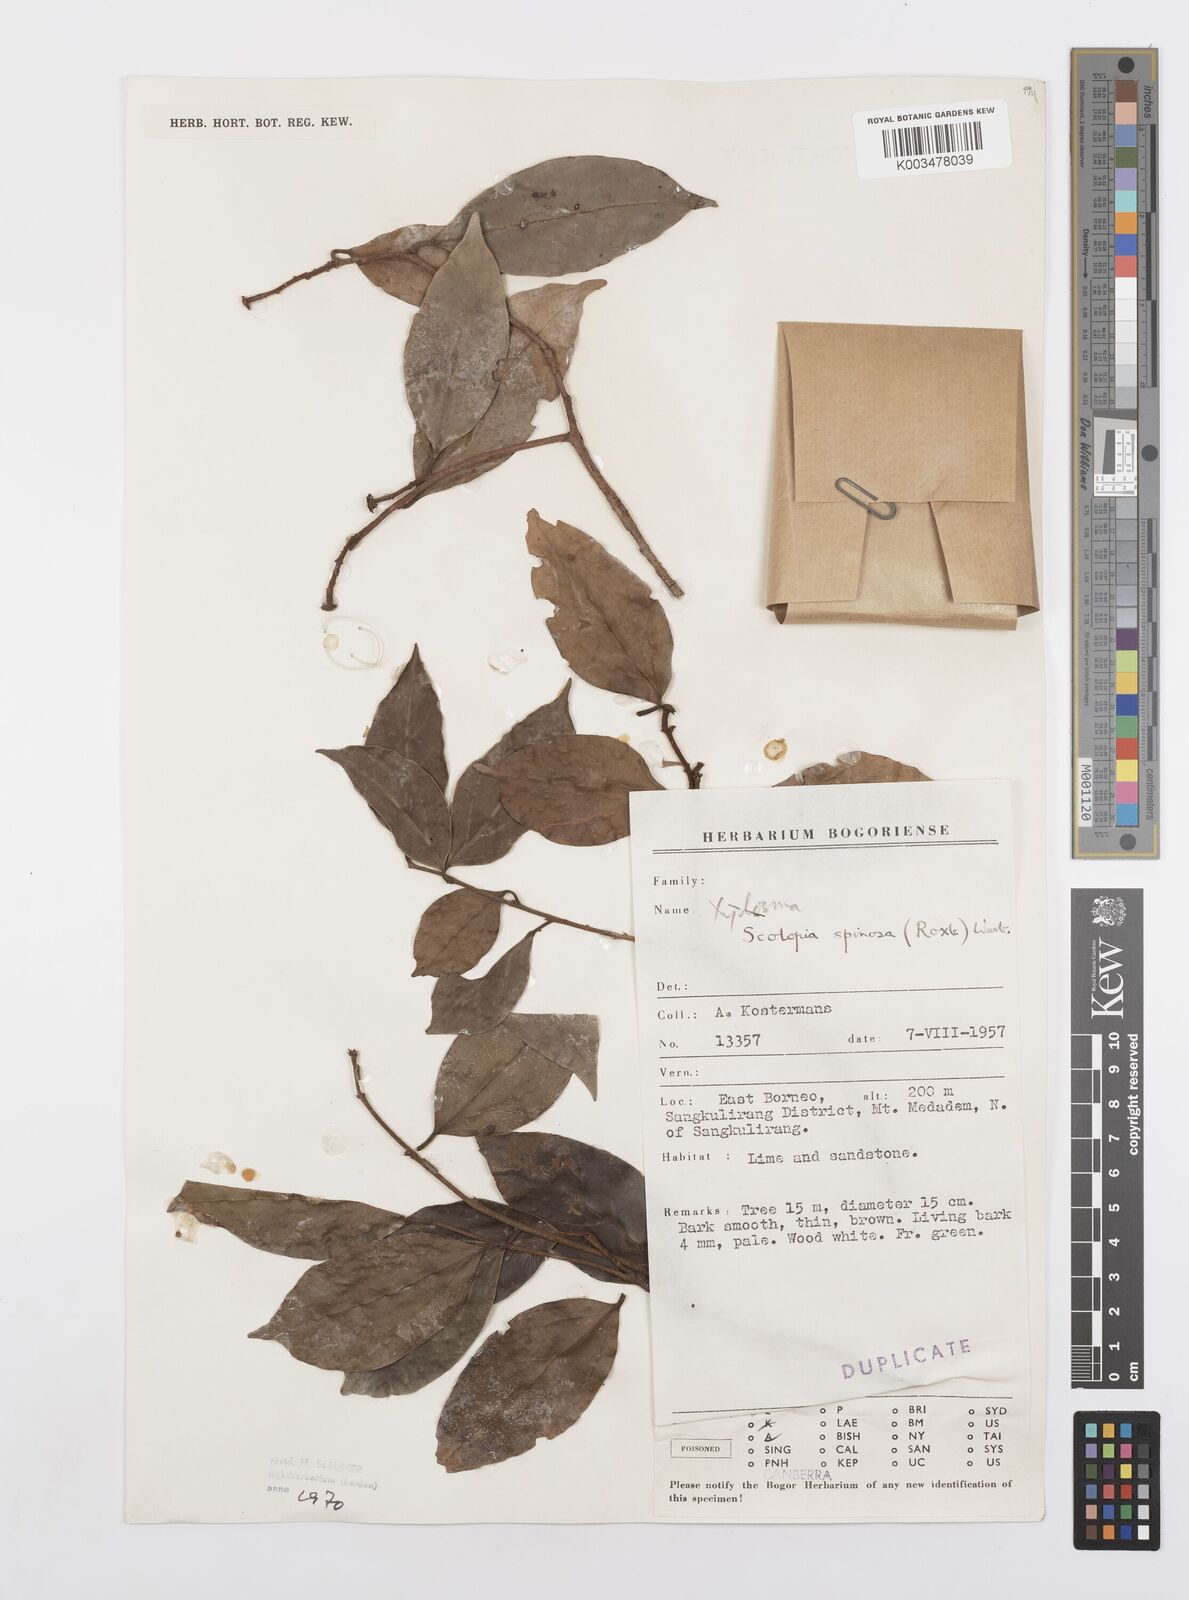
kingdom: Plantae
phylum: Tracheophyta
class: Magnoliopsida
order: Malpighiales
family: Salicaceae
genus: Scolopia
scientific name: Scolopia spinosa
